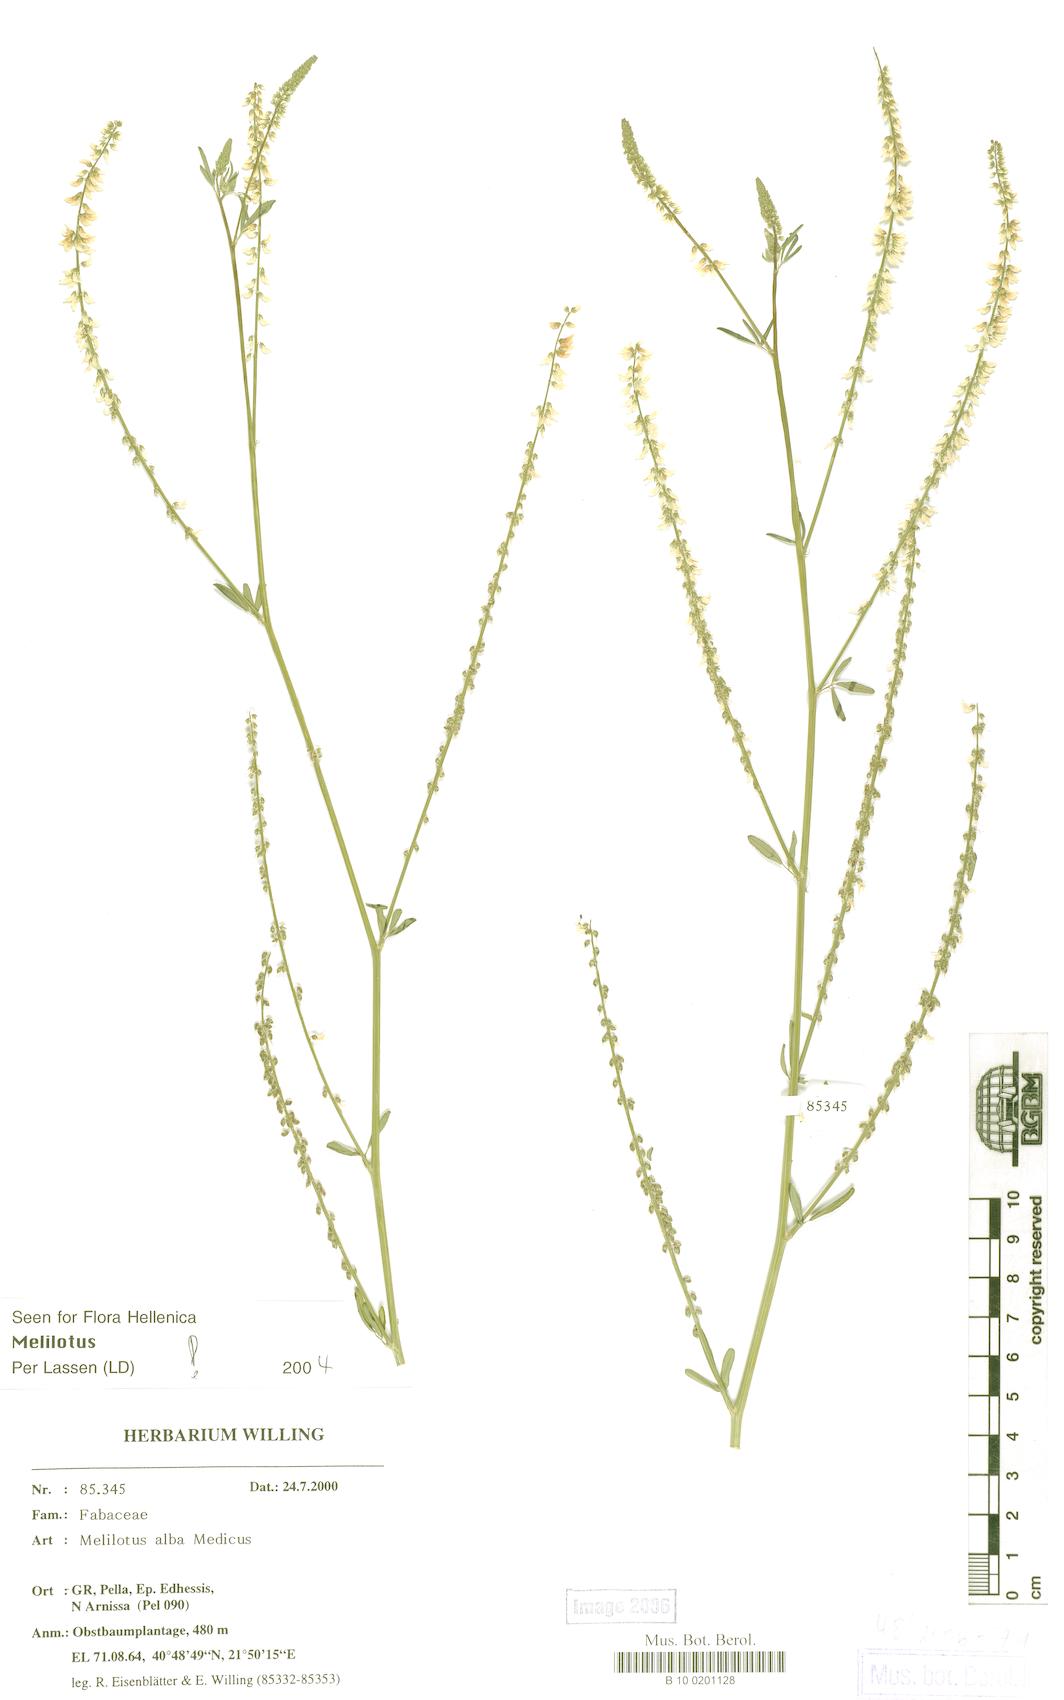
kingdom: Plantae
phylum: Tracheophyta
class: Magnoliopsida
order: Fabales
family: Fabaceae
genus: Melilotus
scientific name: Melilotus albus
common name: White melilot
